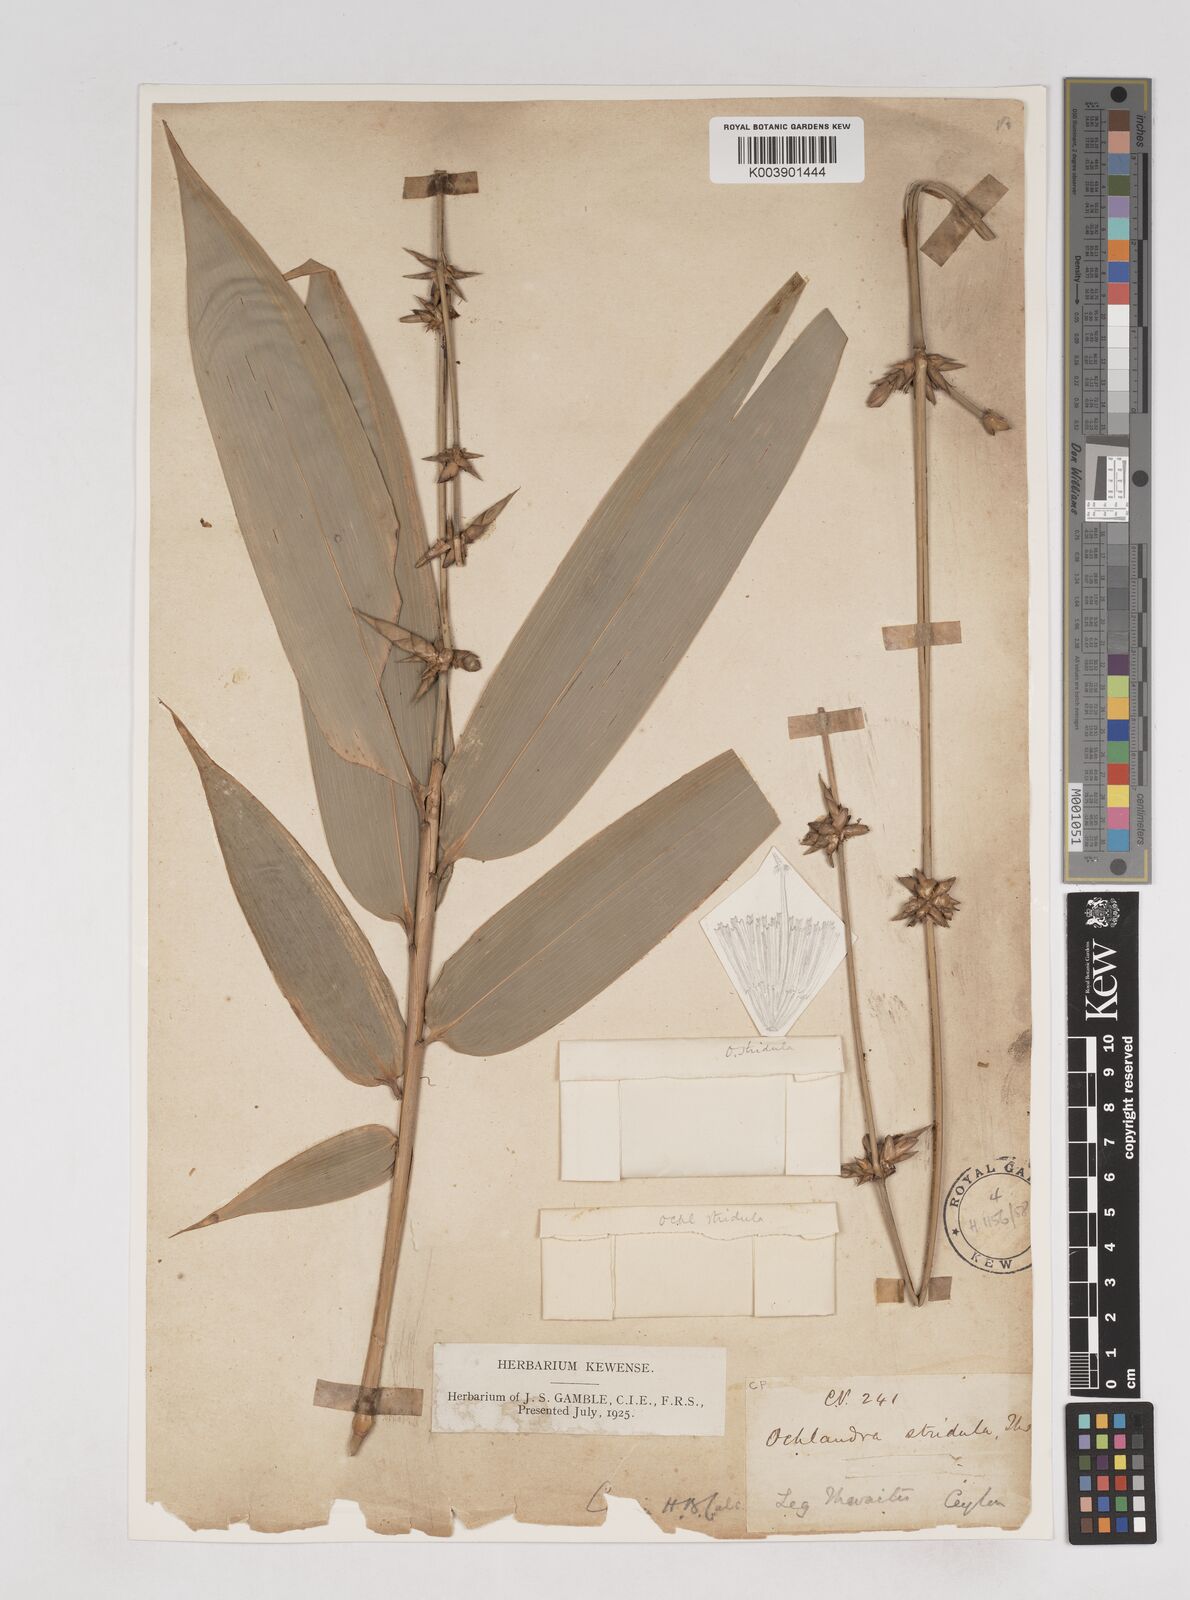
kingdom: Plantae
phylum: Tracheophyta
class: Liliopsida
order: Poales
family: Poaceae
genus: Ochlandra
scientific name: Ochlandra stridula
